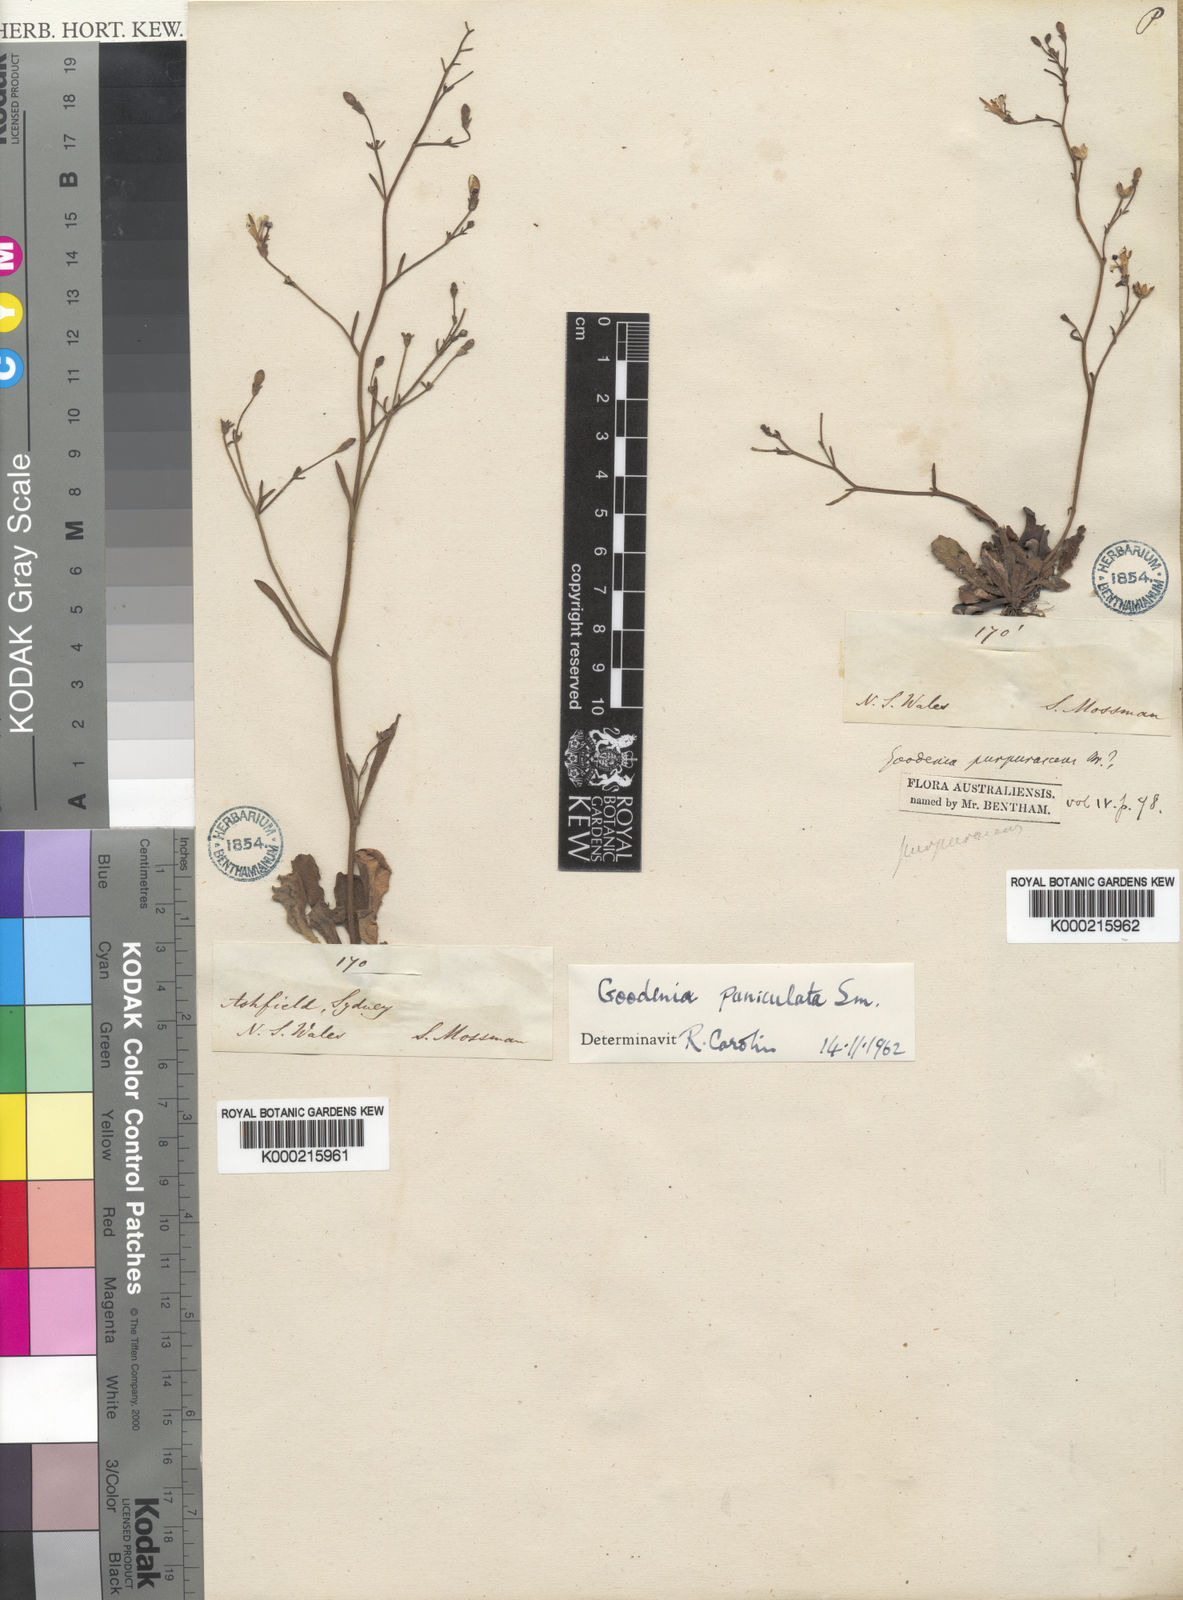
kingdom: Plantae
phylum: Tracheophyta
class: Magnoliopsida
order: Asterales
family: Goodeniaceae
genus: Goodenia
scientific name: Goodenia paniculata
